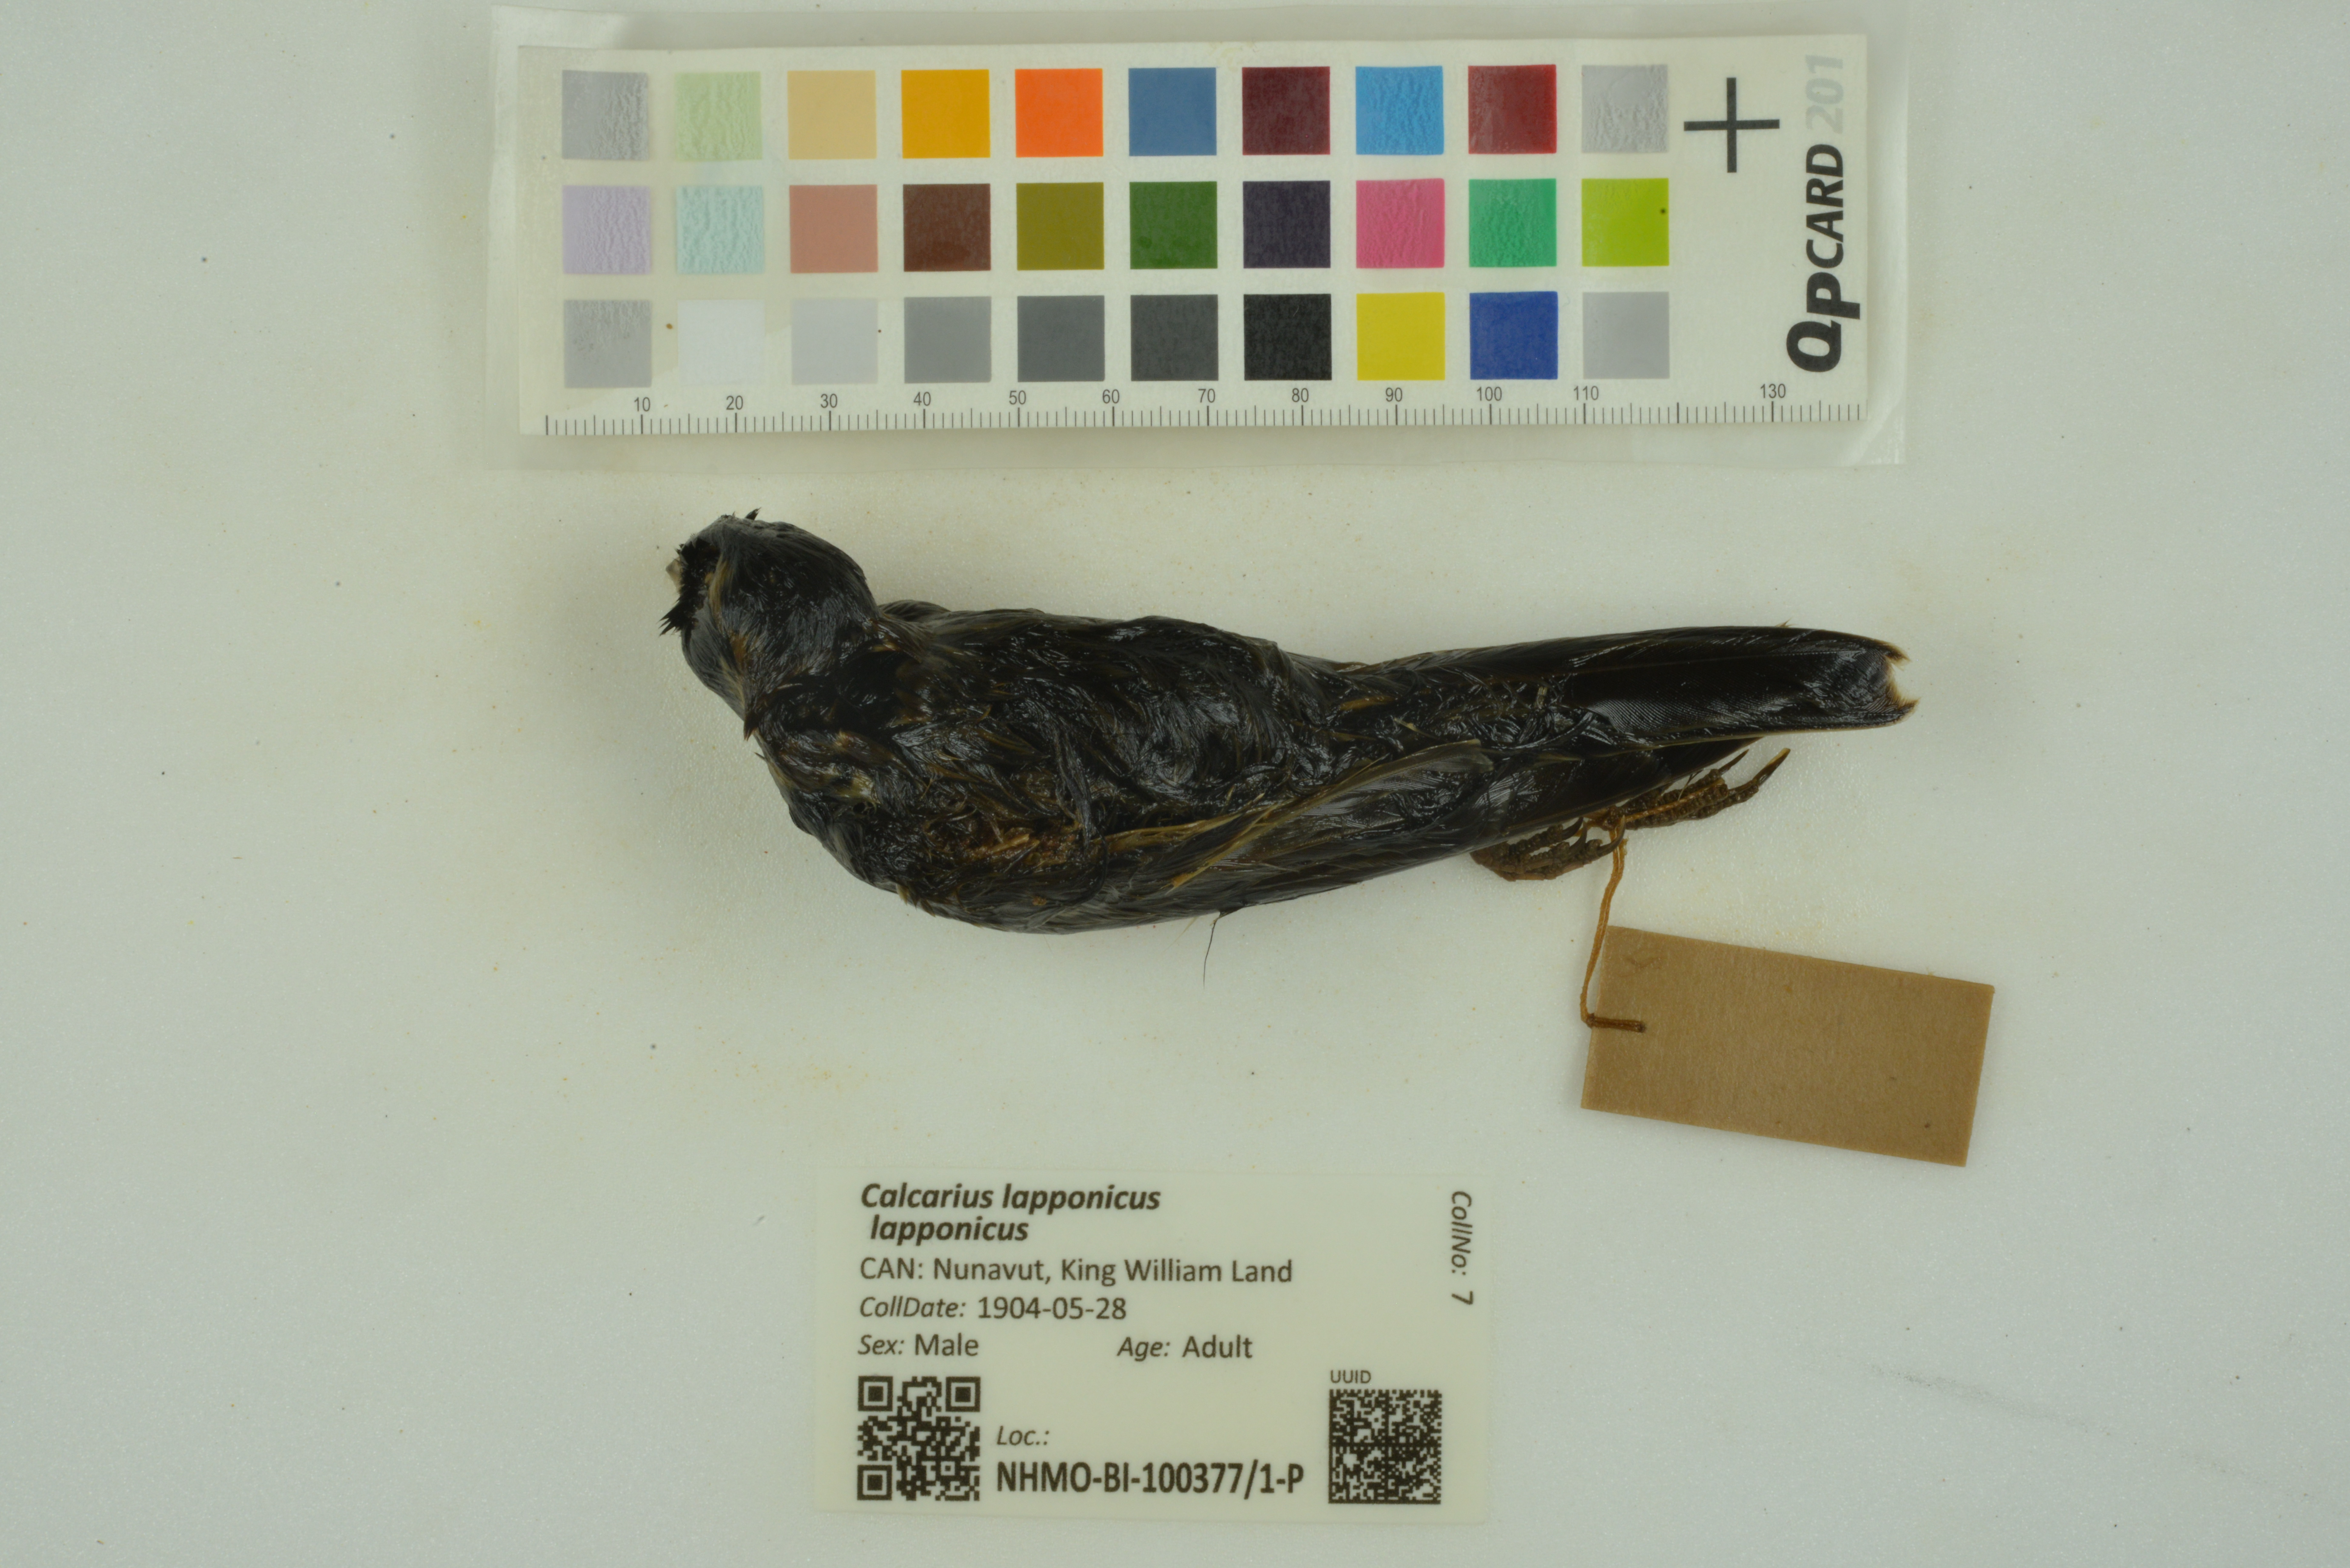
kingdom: Animalia
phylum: Chordata
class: Aves
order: Passeriformes
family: Calcariidae
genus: Calcarius
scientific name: Calcarius lapponicus
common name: Lapland longspur
